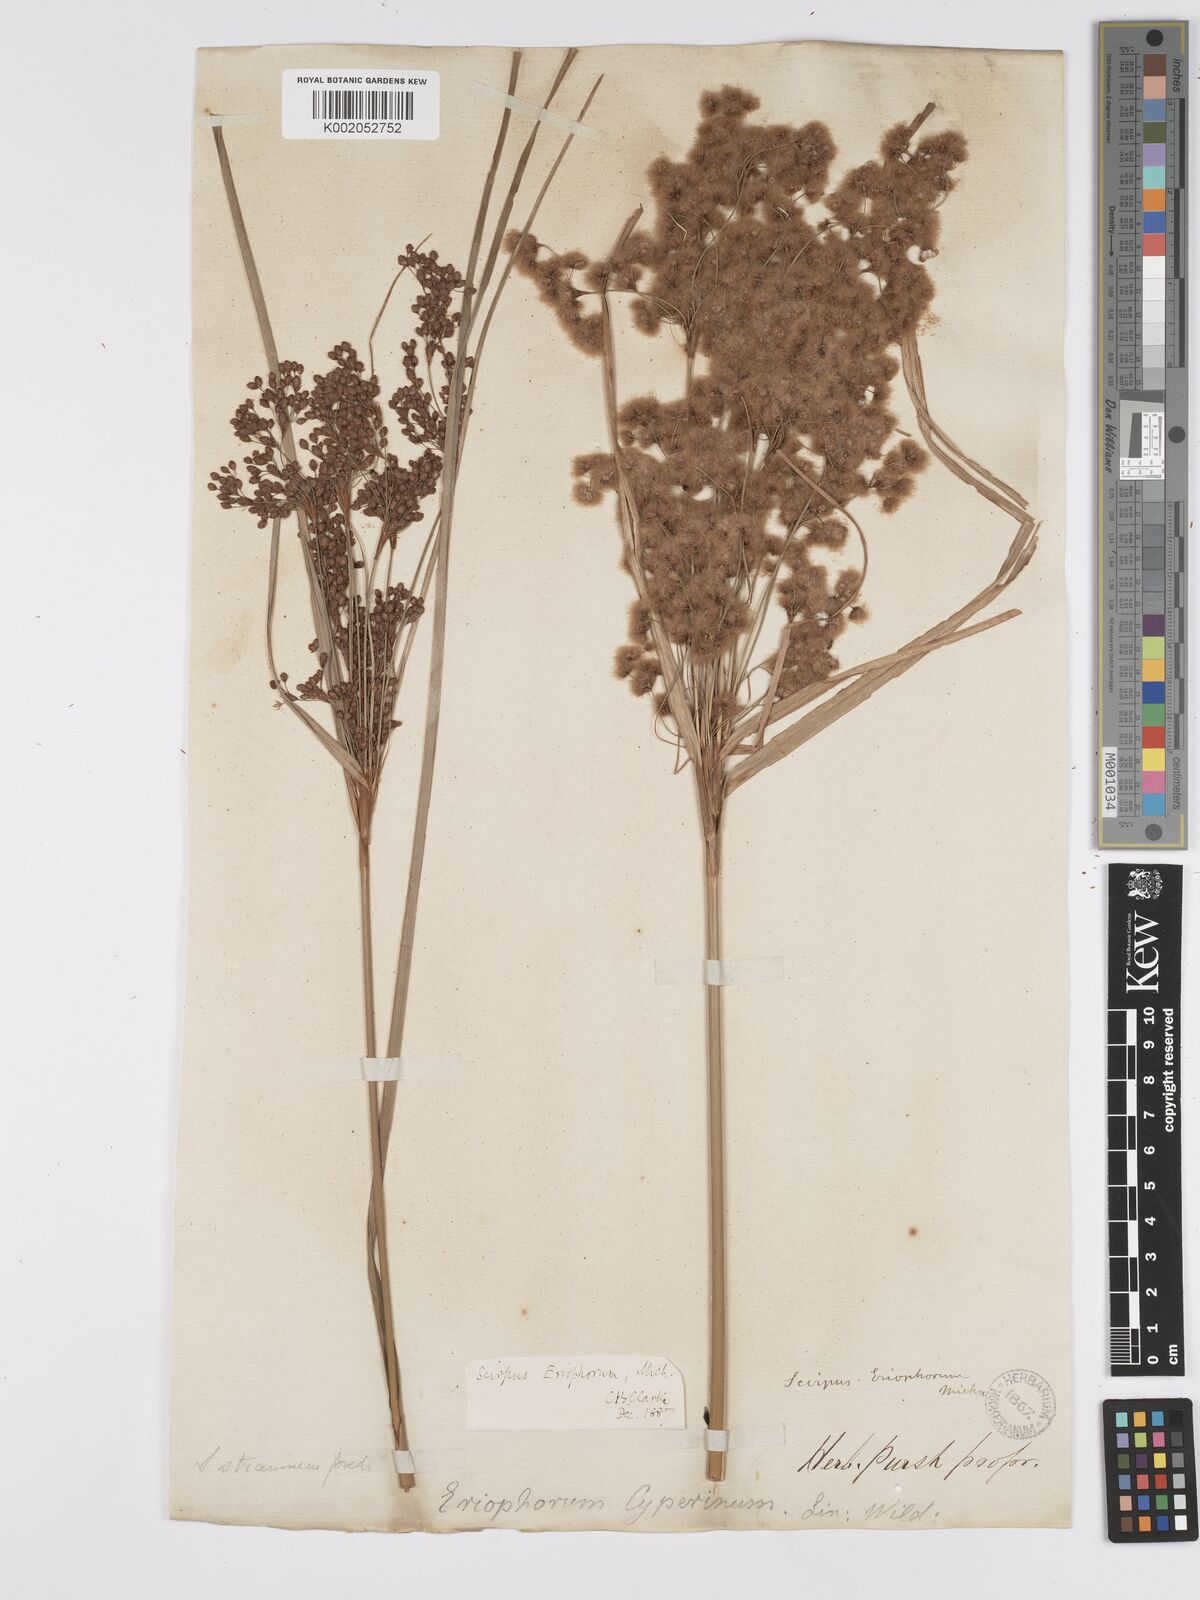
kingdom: Plantae
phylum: Tracheophyta
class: Liliopsida
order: Poales
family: Cyperaceae
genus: Scirpus
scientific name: Scirpus cyperinus
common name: Black-sheathed bulrush
